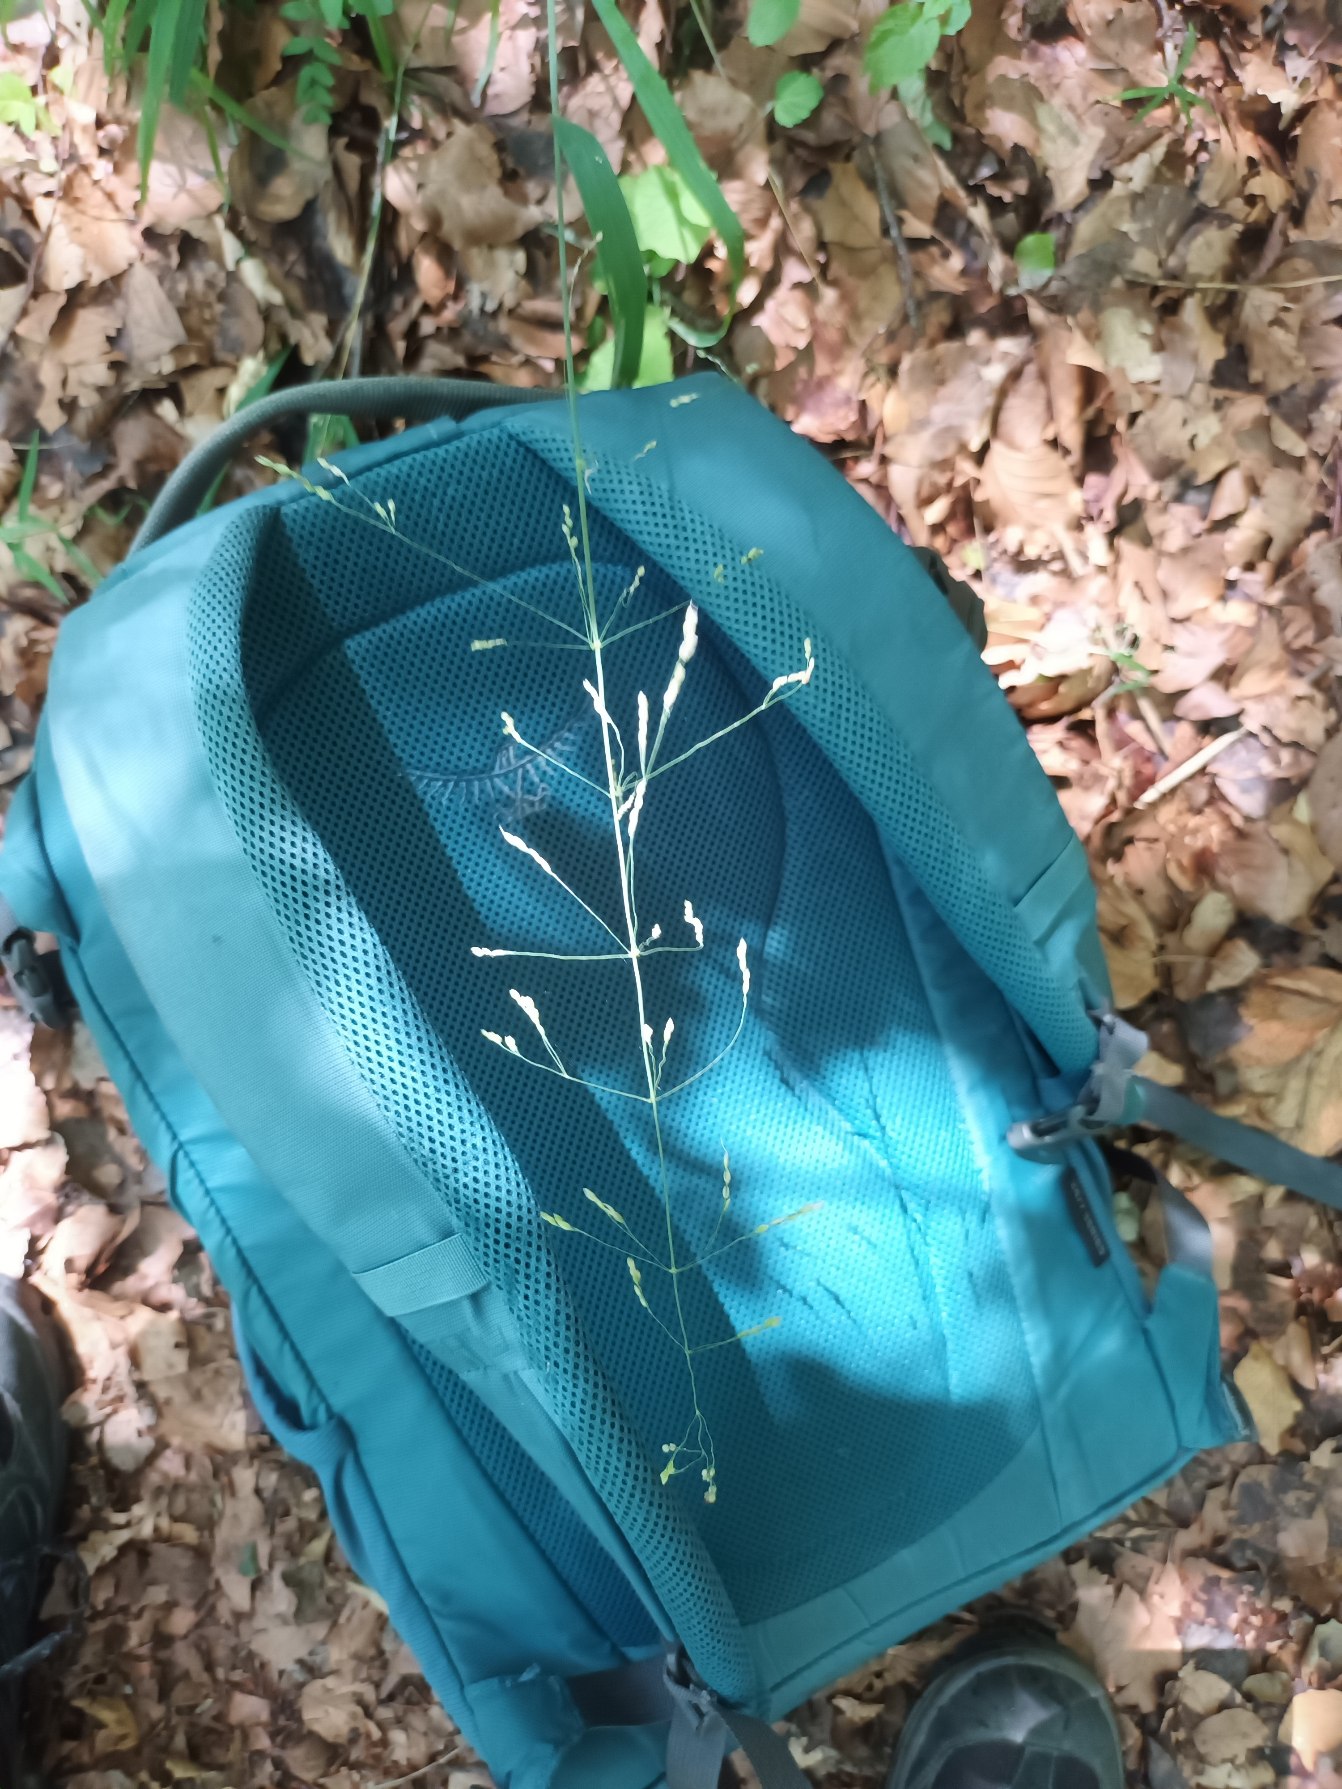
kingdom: Plantae
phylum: Tracheophyta
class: Liliopsida
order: Poales
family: Poaceae
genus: Milium
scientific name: Milium effusum
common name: Miliegræs
